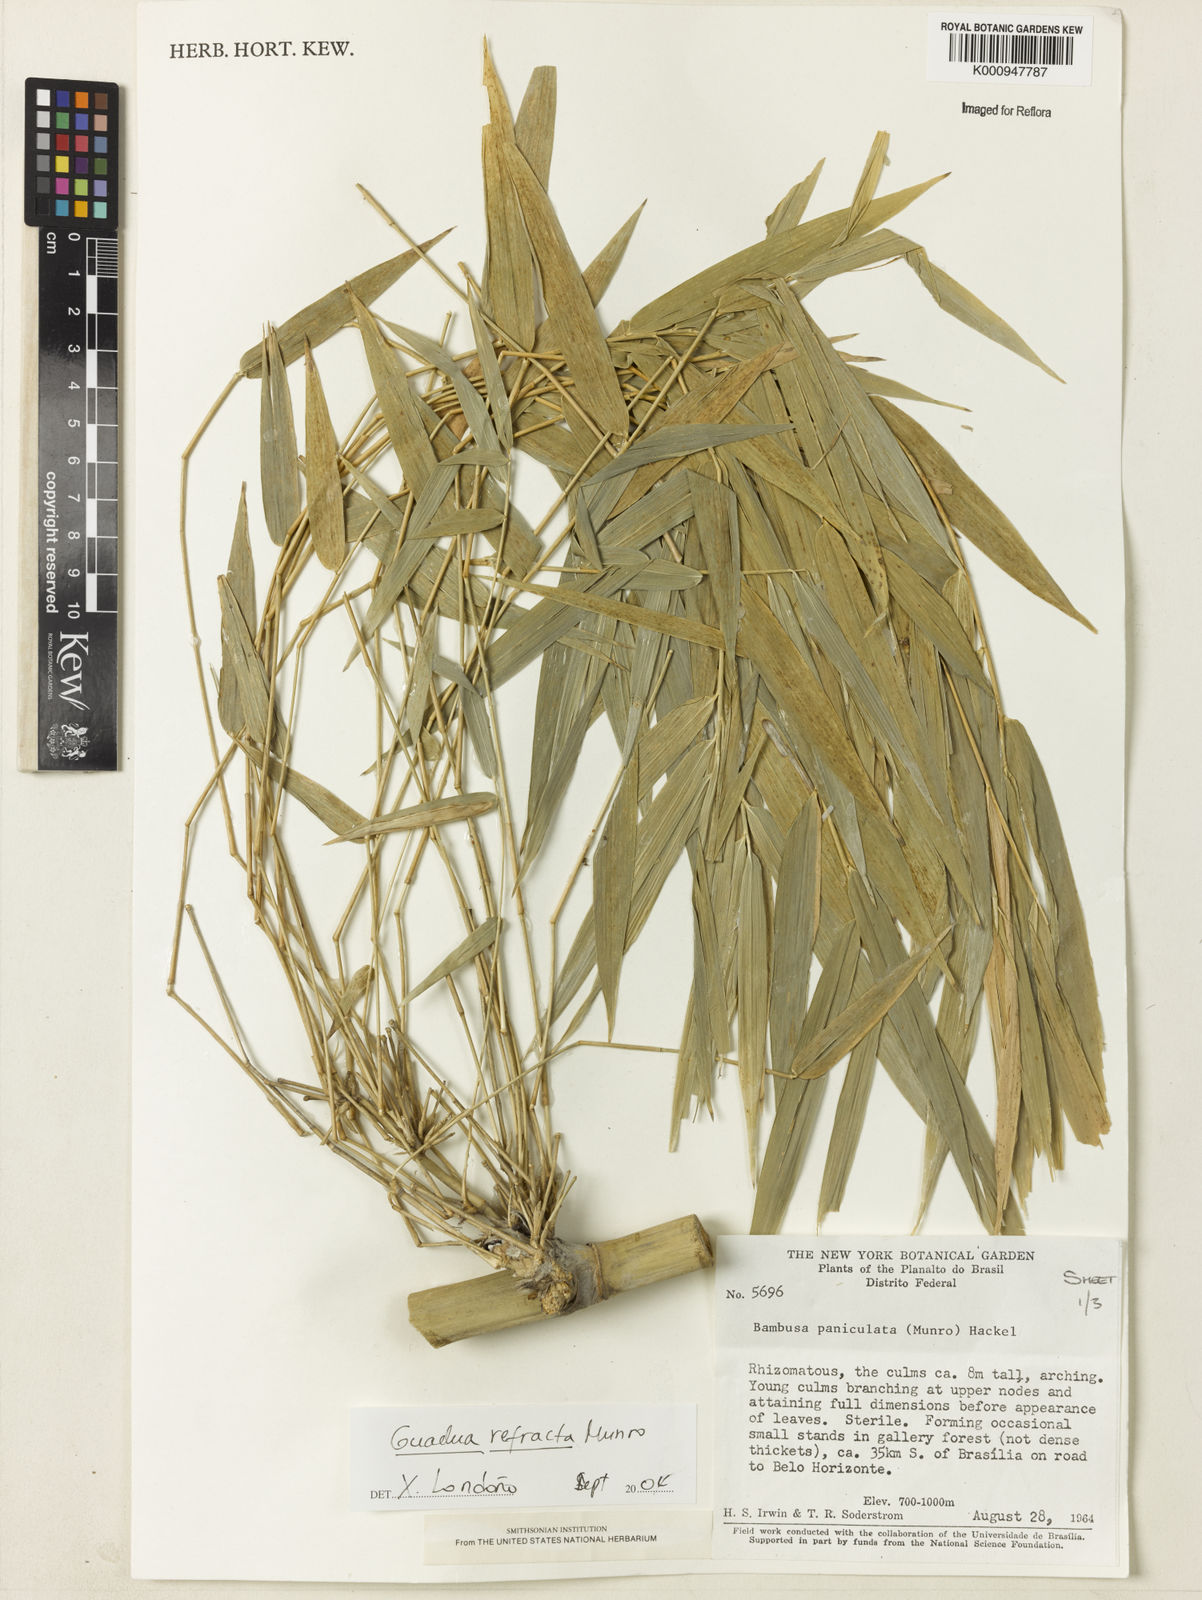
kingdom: Plantae
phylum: Tracheophyta
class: Liliopsida
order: Poales
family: Poaceae
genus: Guadua
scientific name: Guadua refracta
